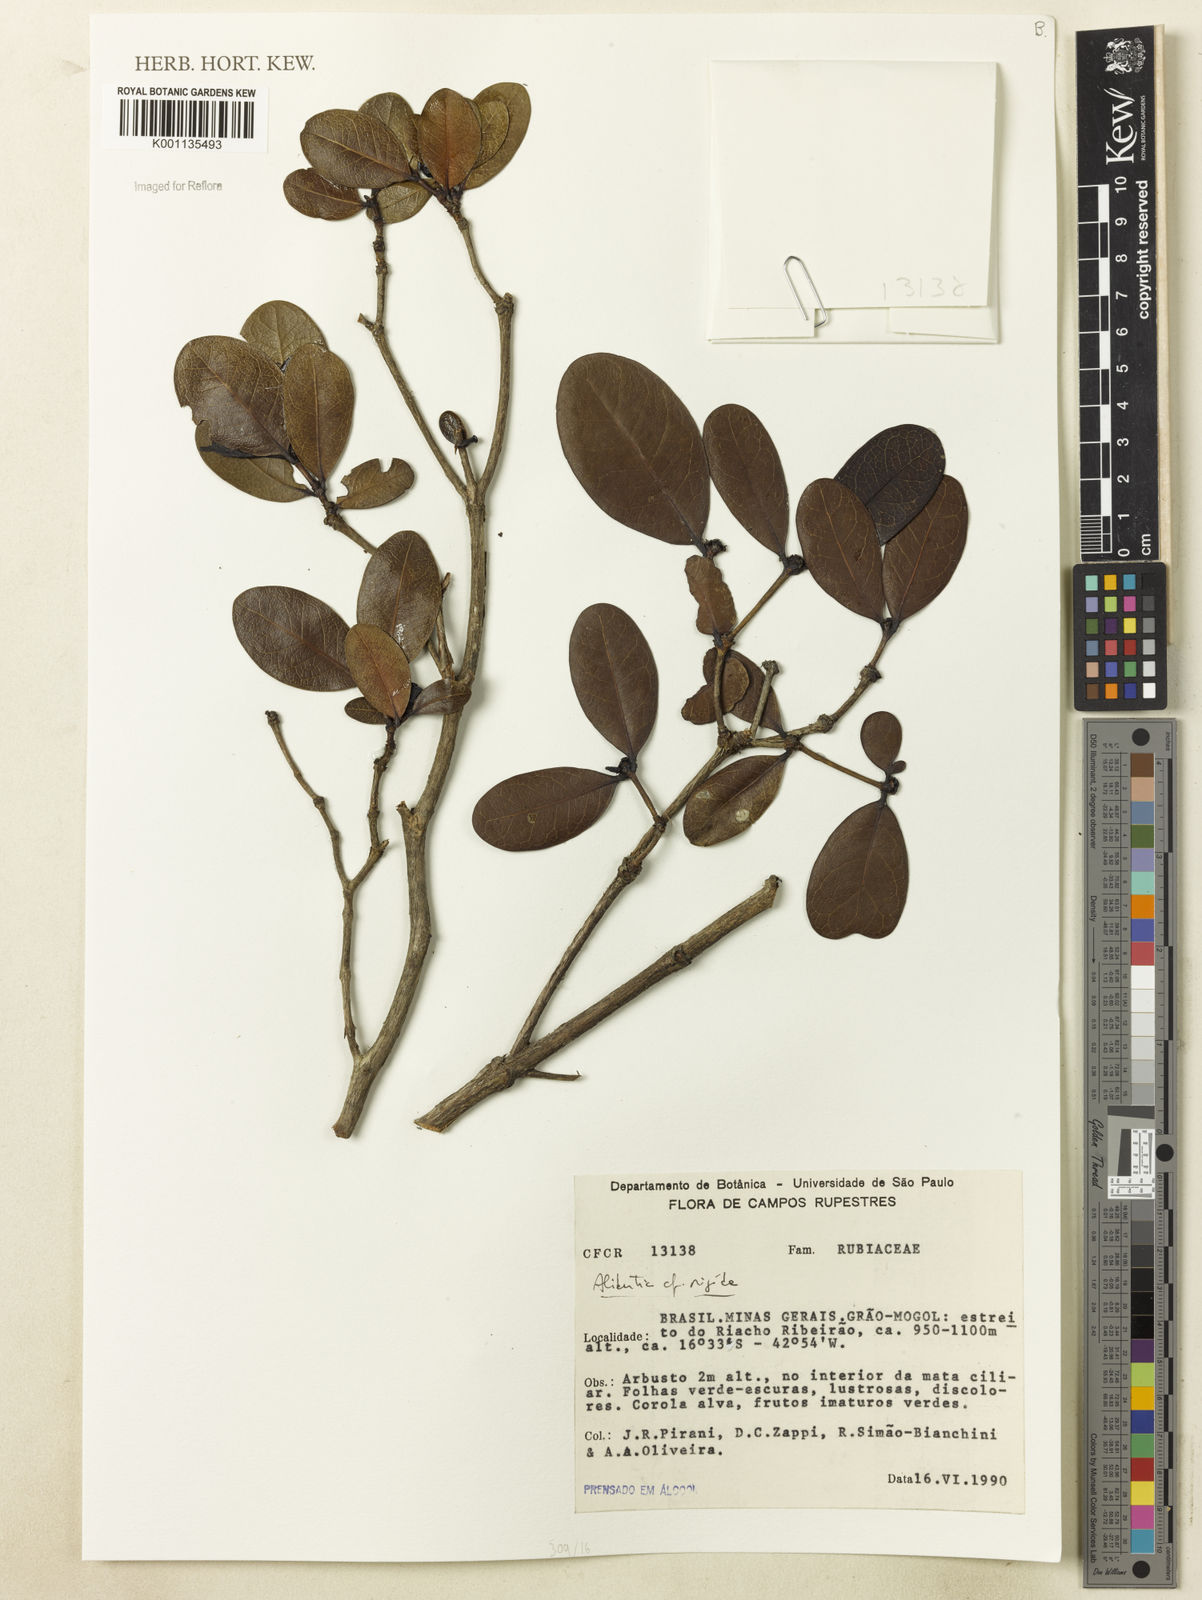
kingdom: Plantae
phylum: Tracheophyta
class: Magnoliopsida
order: Gentianales
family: Rubiaceae
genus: Cordiera
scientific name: Cordiera rigida
